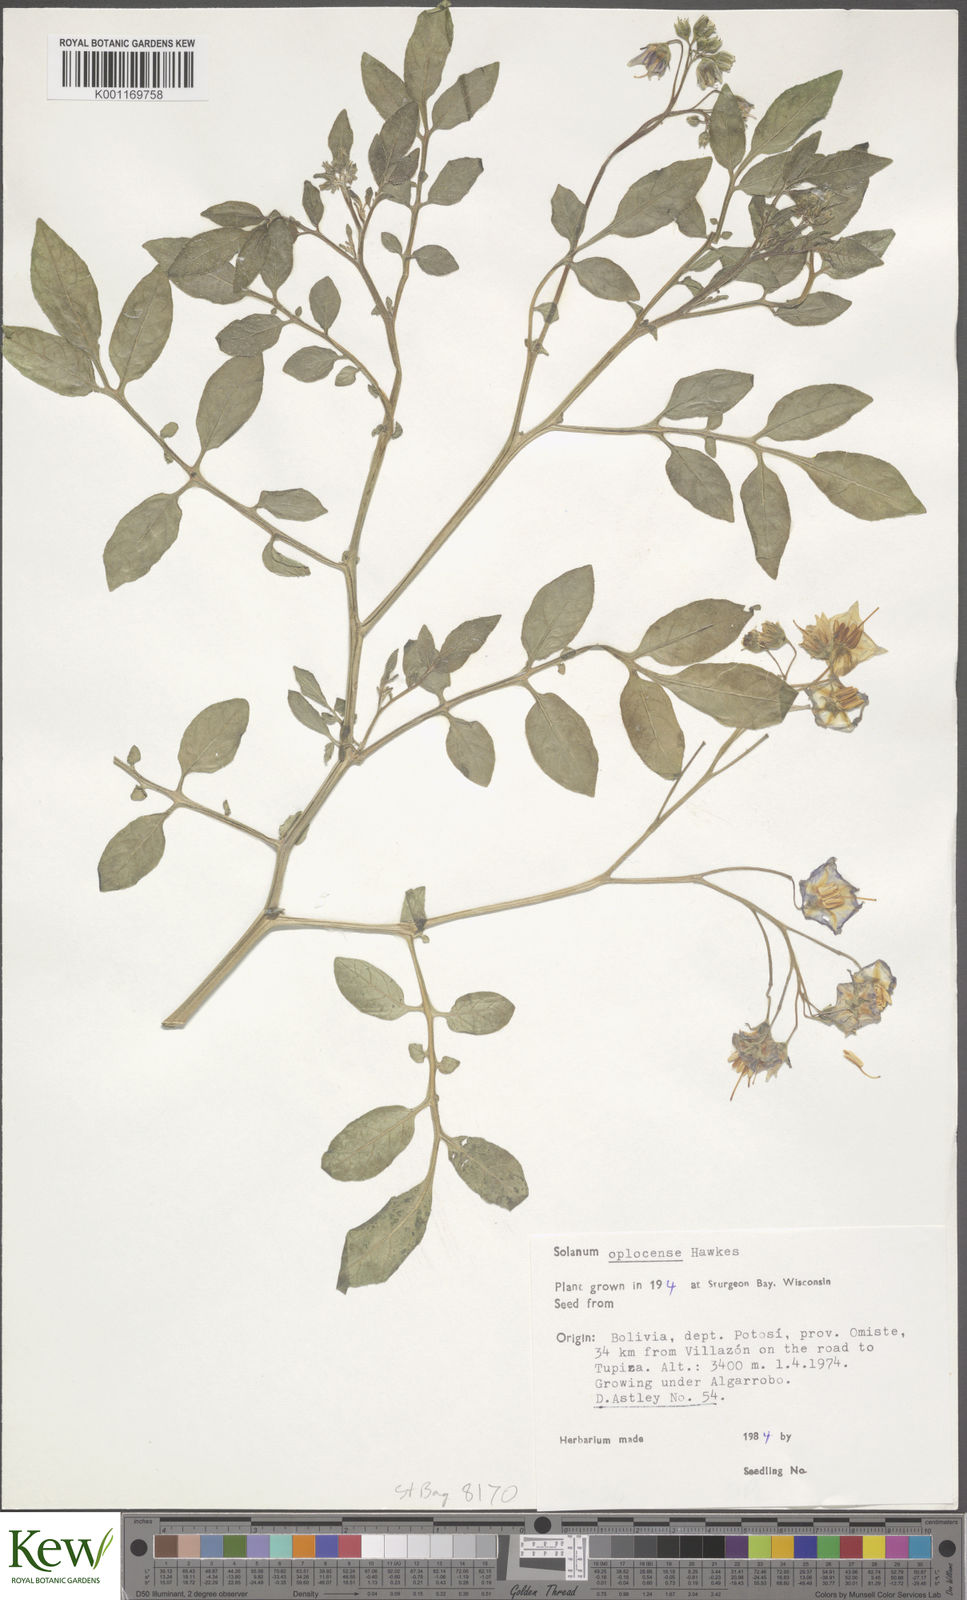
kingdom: Plantae
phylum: Tracheophyta
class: Magnoliopsida
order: Solanales
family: Solanaceae
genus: Solanum
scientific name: Solanum brevicaule
